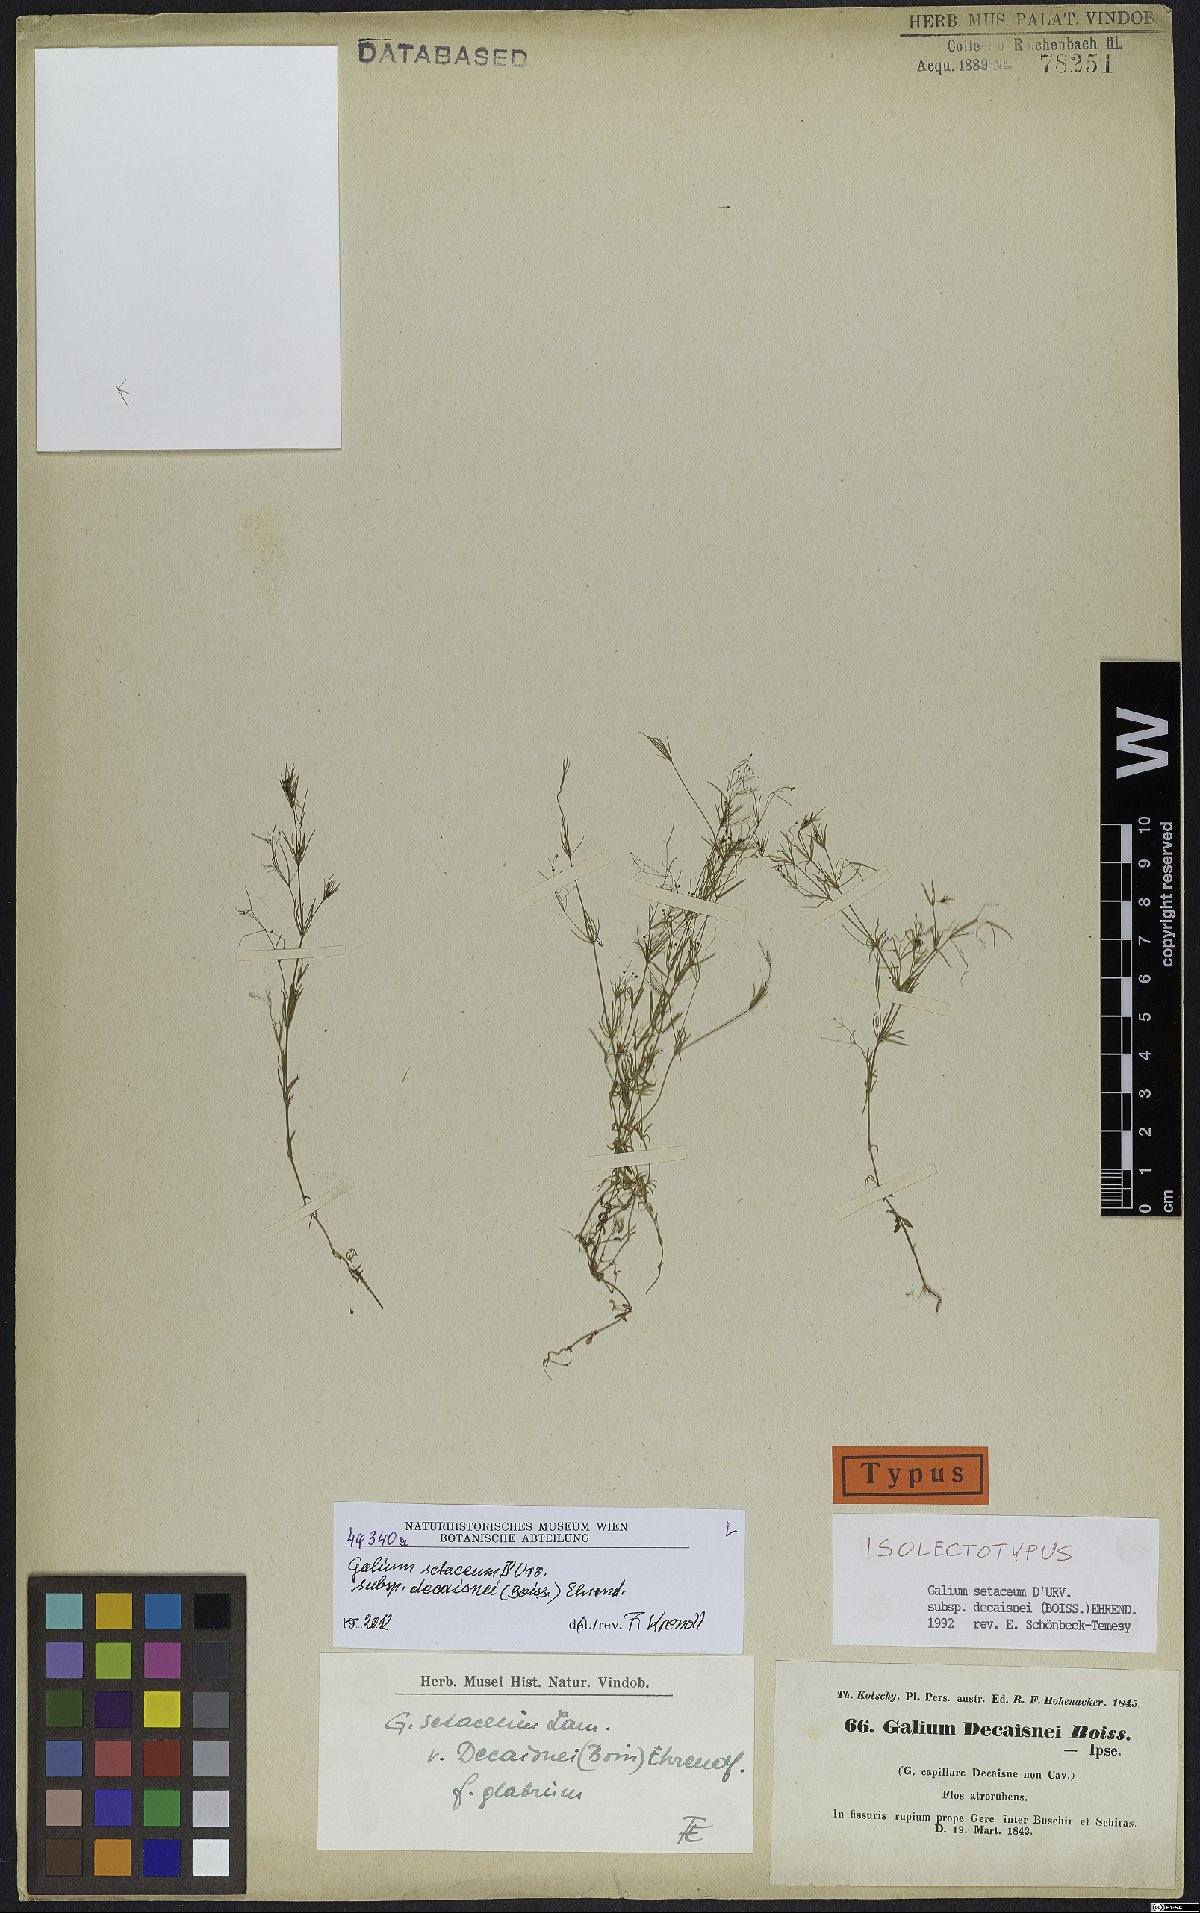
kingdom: Plantae
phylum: Tracheophyta
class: Magnoliopsida
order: Gentianales
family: Rubiaceae
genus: Galium
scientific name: Galium setaceum
